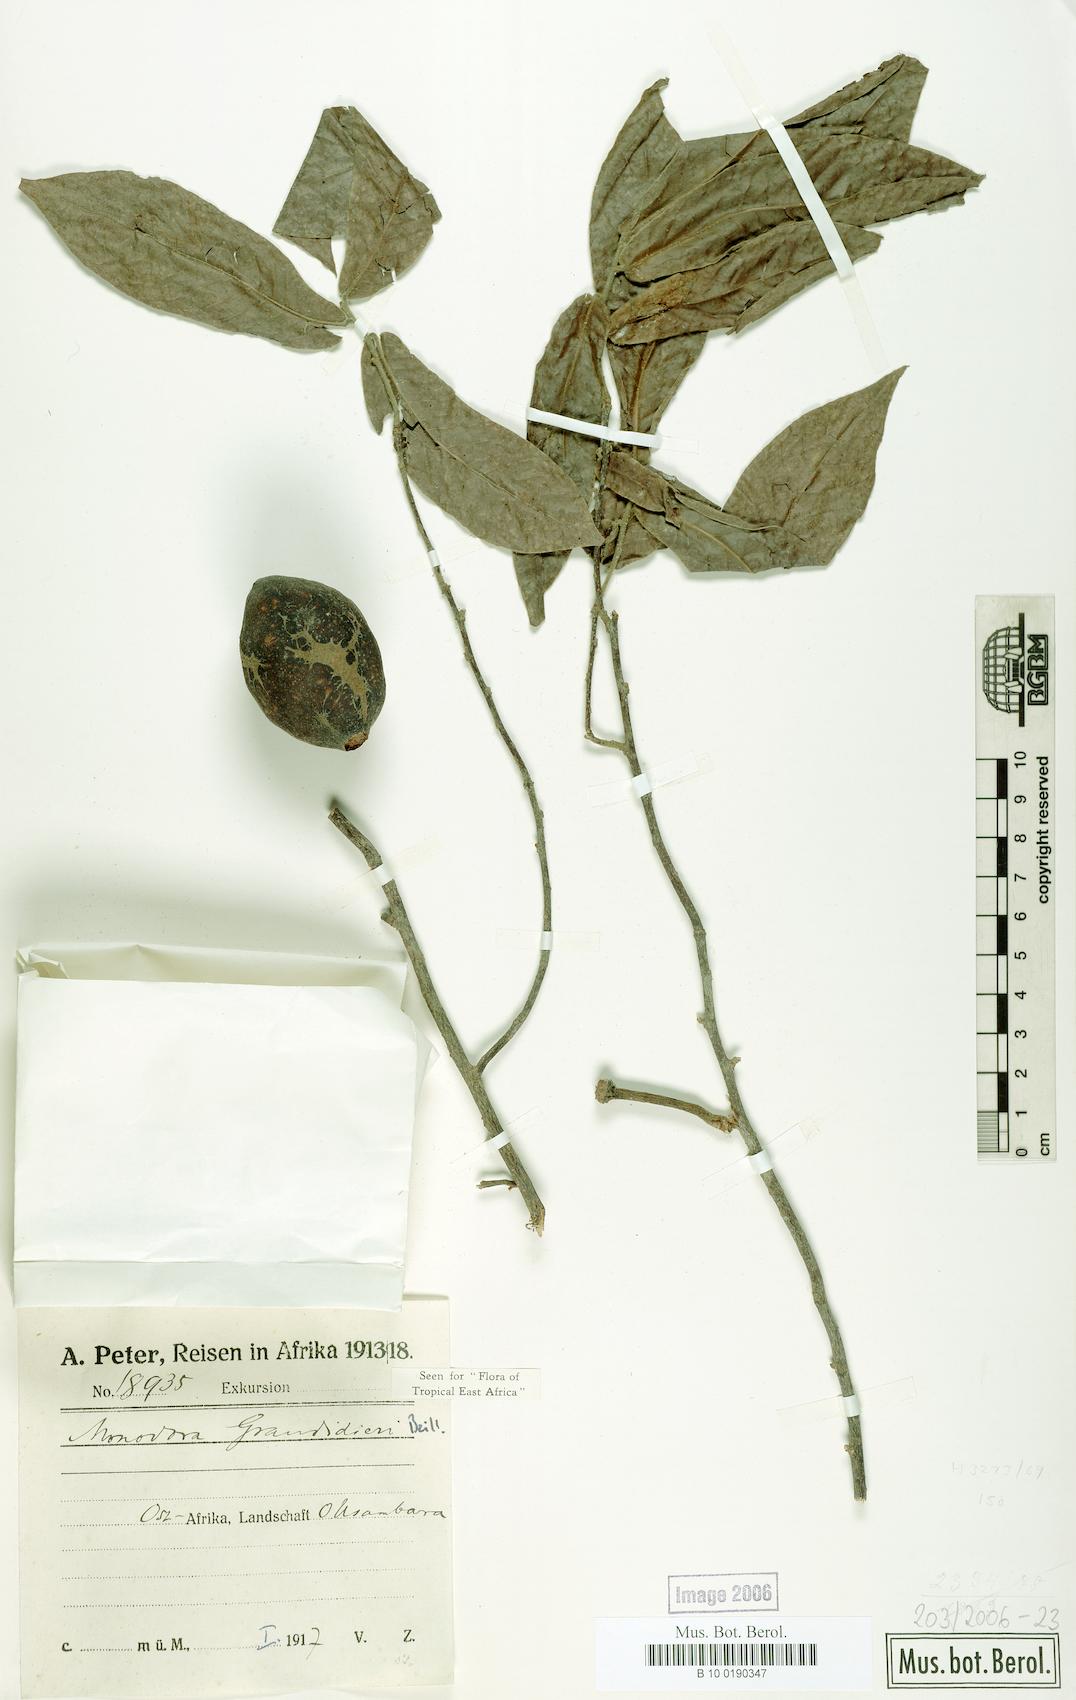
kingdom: Plantae
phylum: Tracheophyta
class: Magnoliopsida
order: Magnoliales
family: Annonaceae
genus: Monodora
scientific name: Monodora grandidieri
